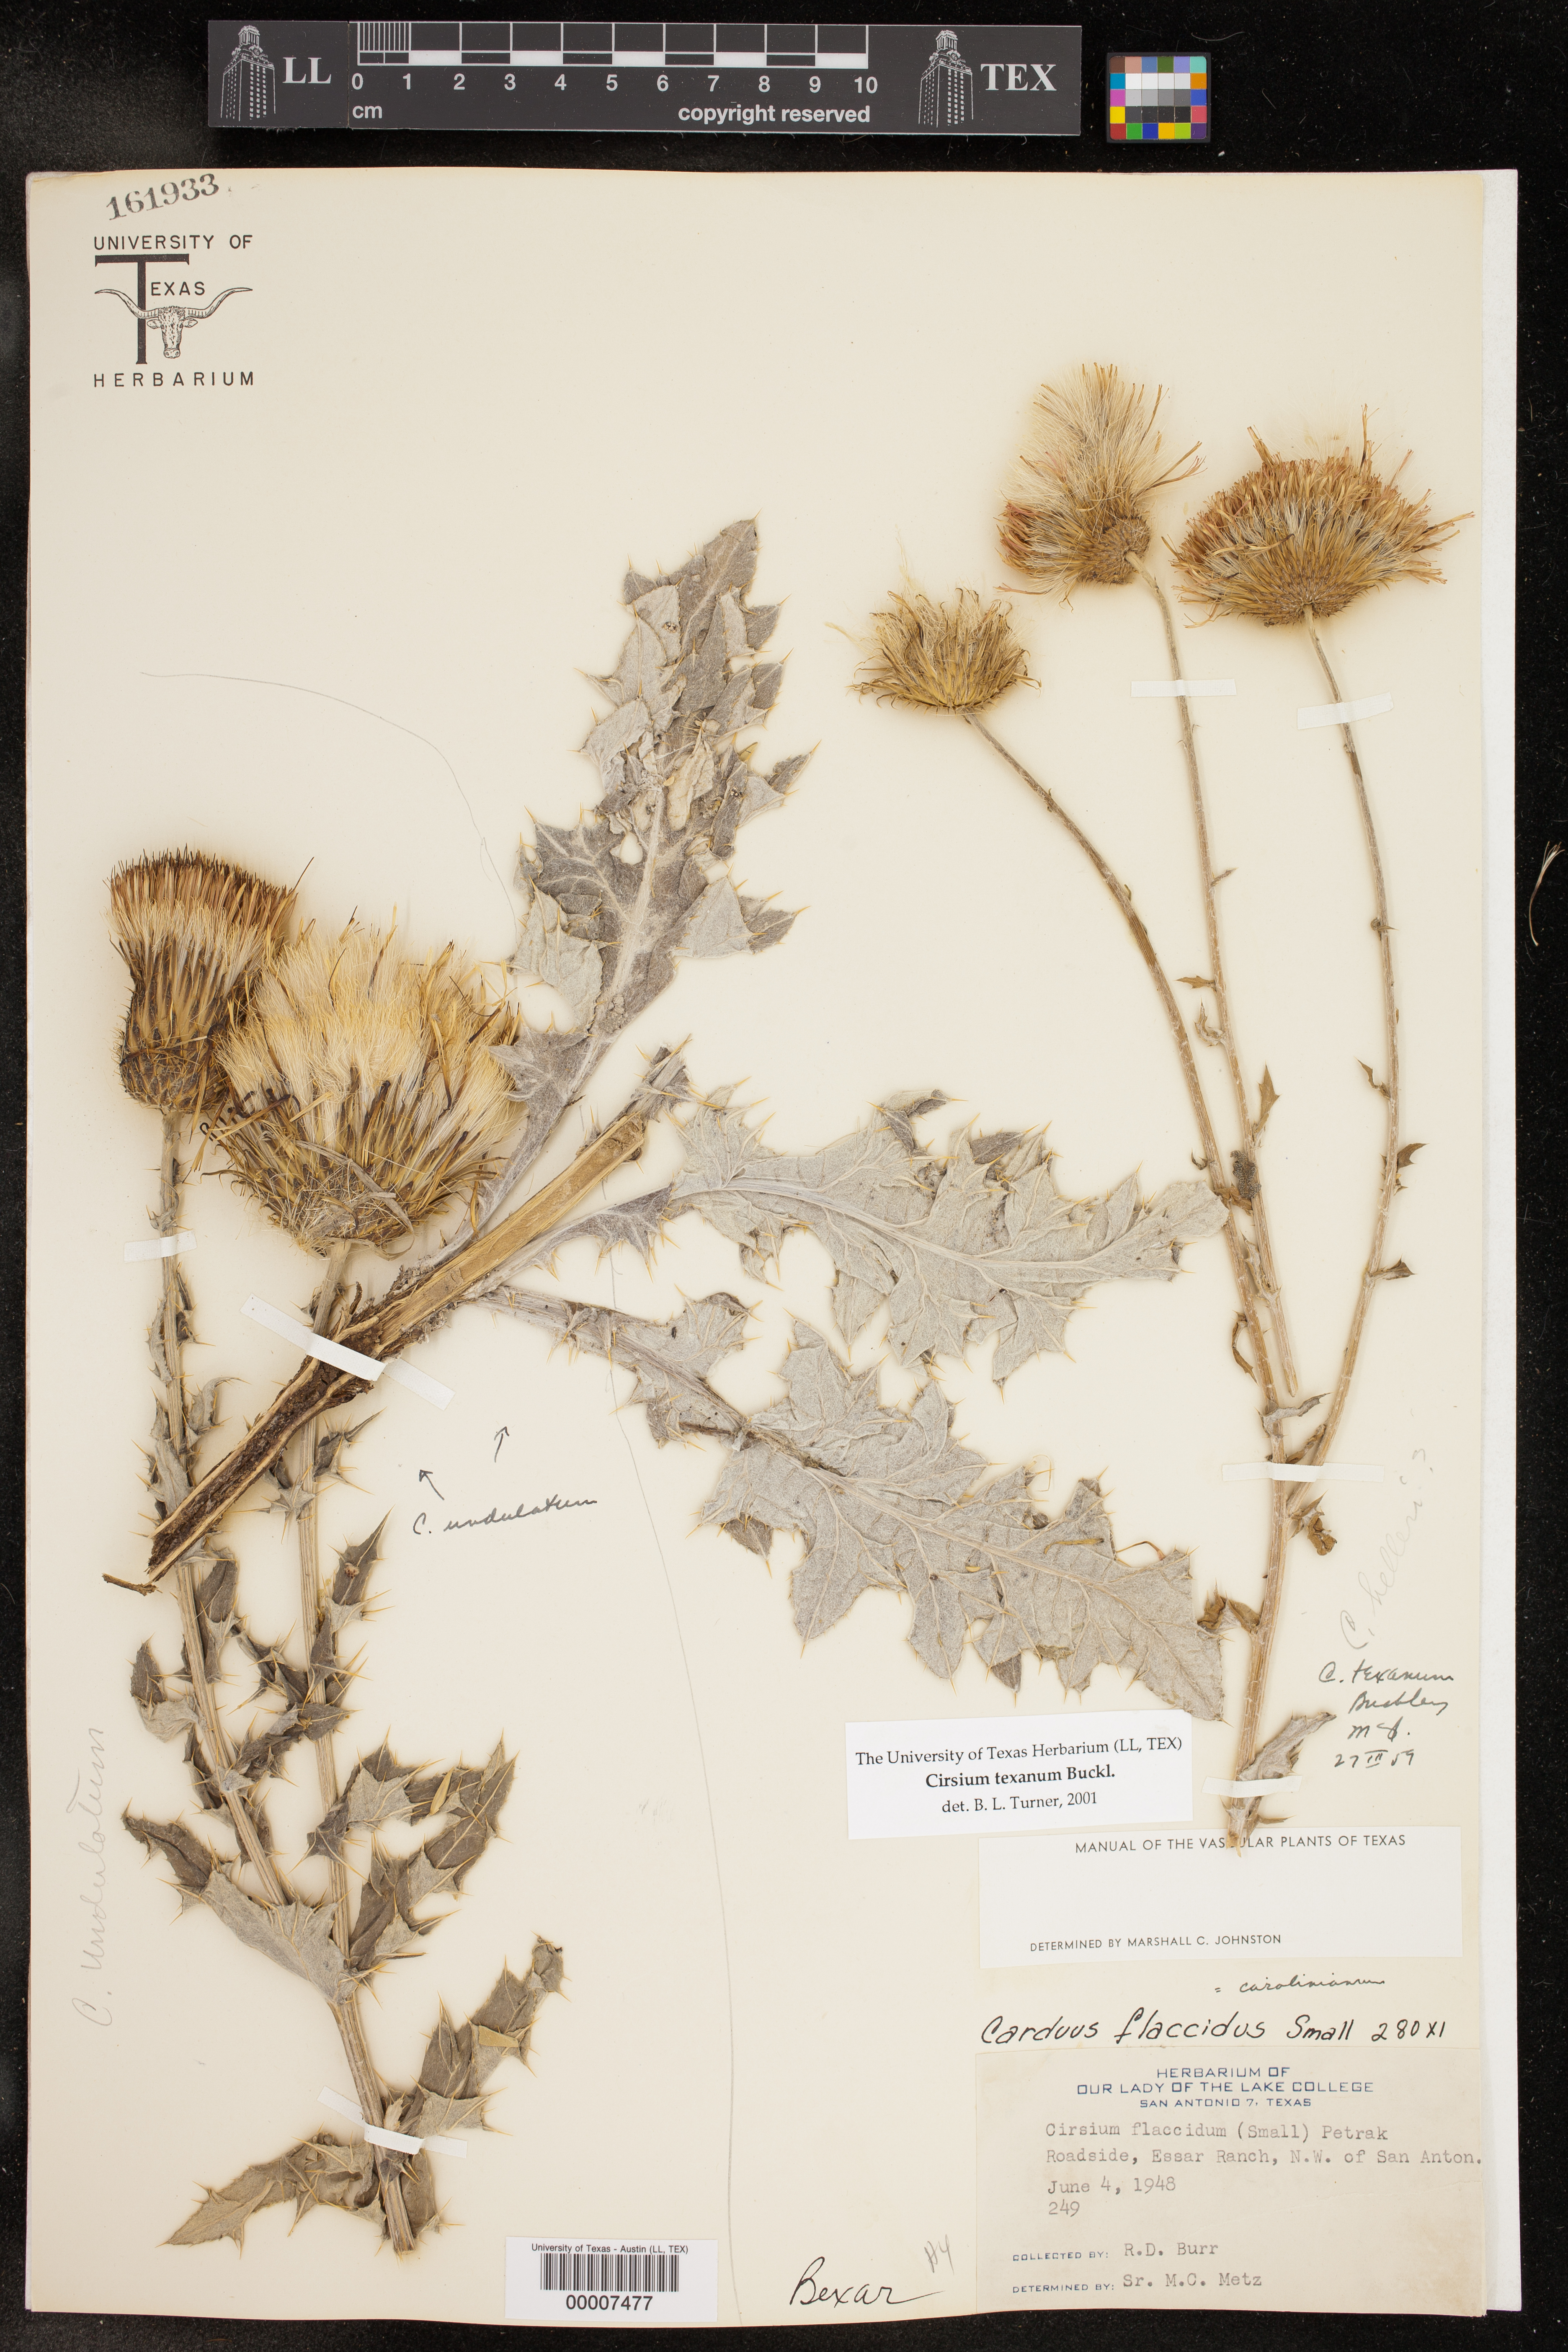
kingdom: Plantae
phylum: Tracheophyta
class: Magnoliopsida
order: Asterales
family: Asteraceae
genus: Cirsium
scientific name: Cirsium texanum
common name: Texas purple thistle
